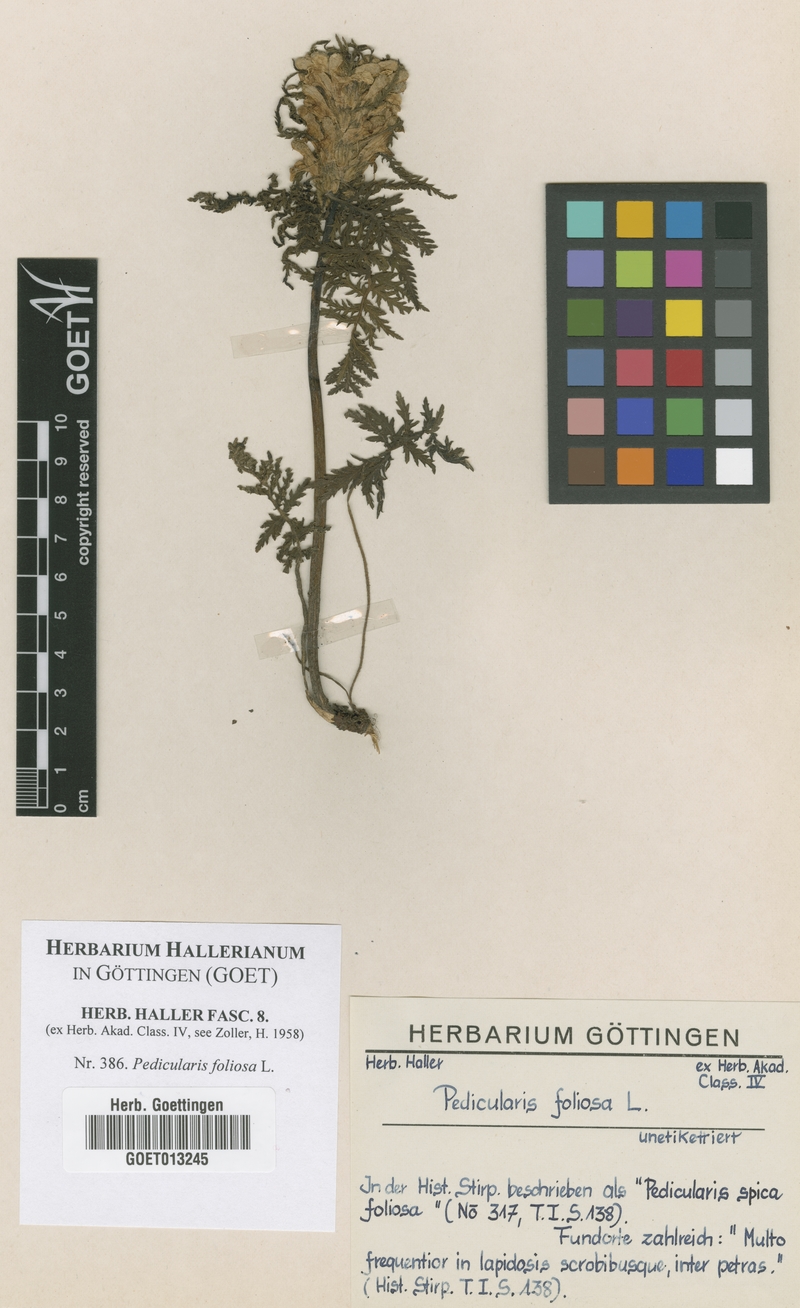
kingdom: Plantae
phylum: Tracheophyta
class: Magnoliopsida
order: Lamiales
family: Orobanchaceae
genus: Pedicularis
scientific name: Pedicularis foliosa
